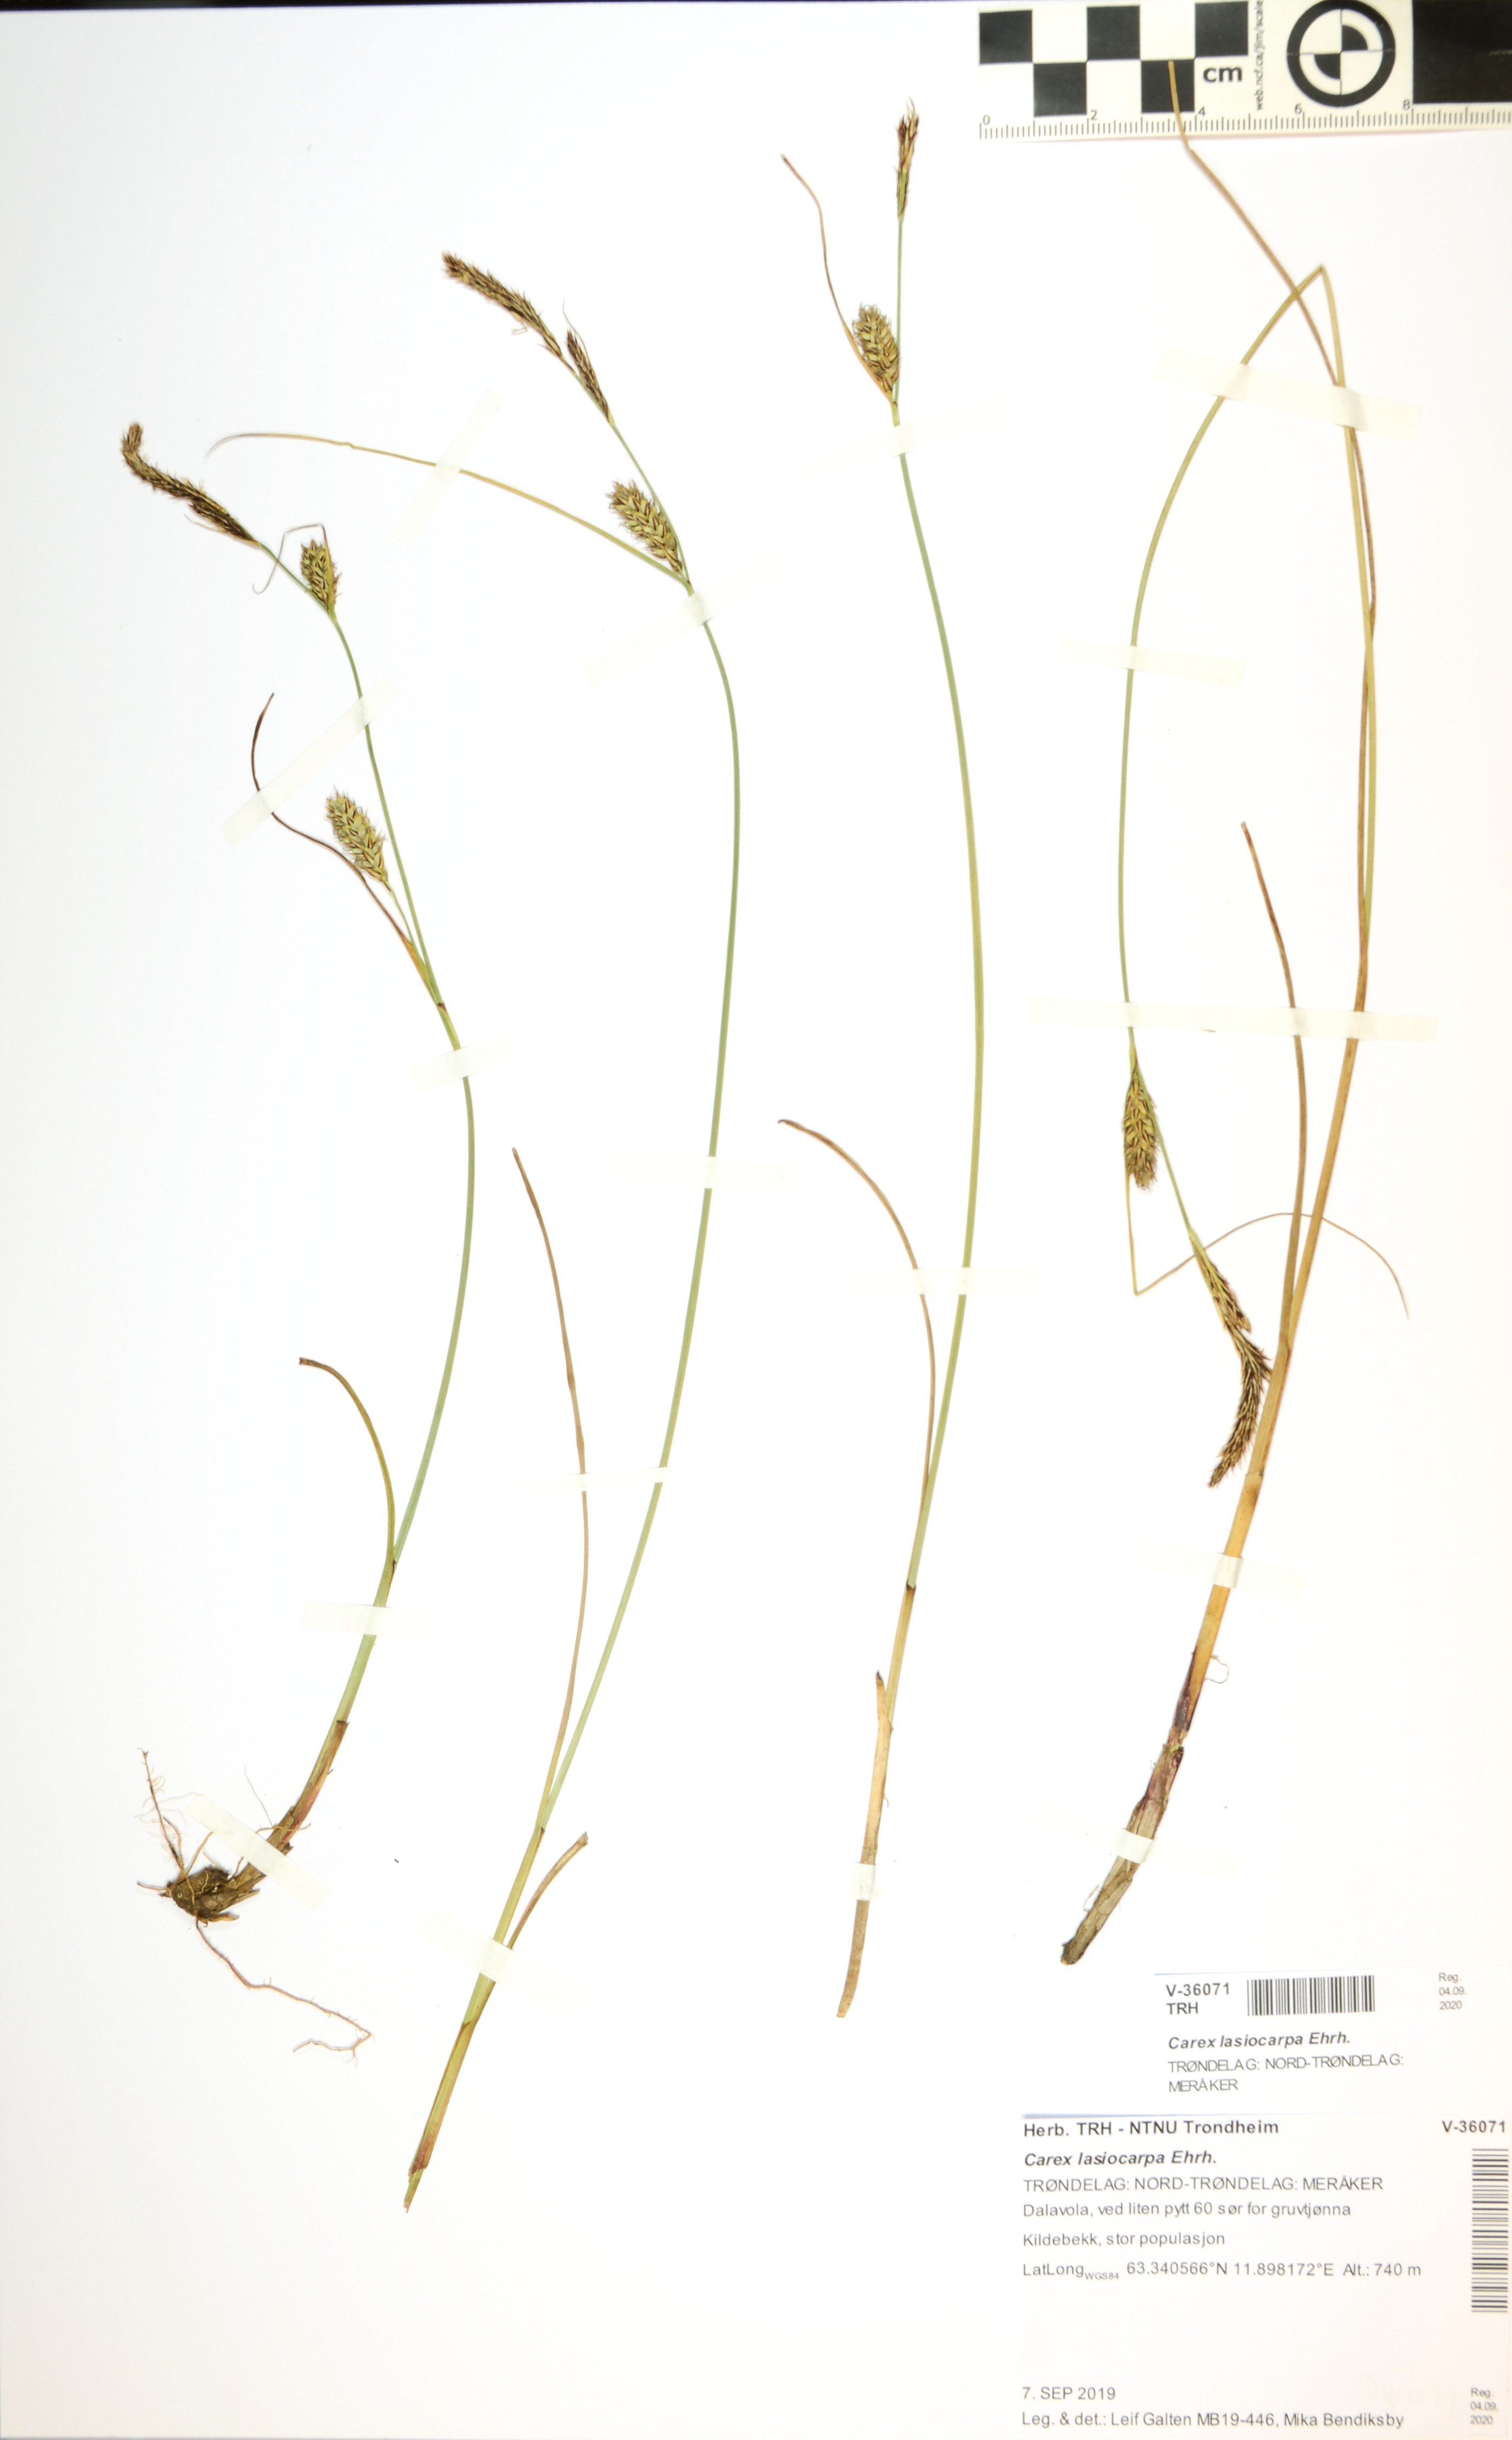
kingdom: Plantae
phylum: Tracheophyta
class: Liliopsida
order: Poales
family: Cyperaceae
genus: Carex
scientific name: Carex lasiocarpa
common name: Slender sedge
